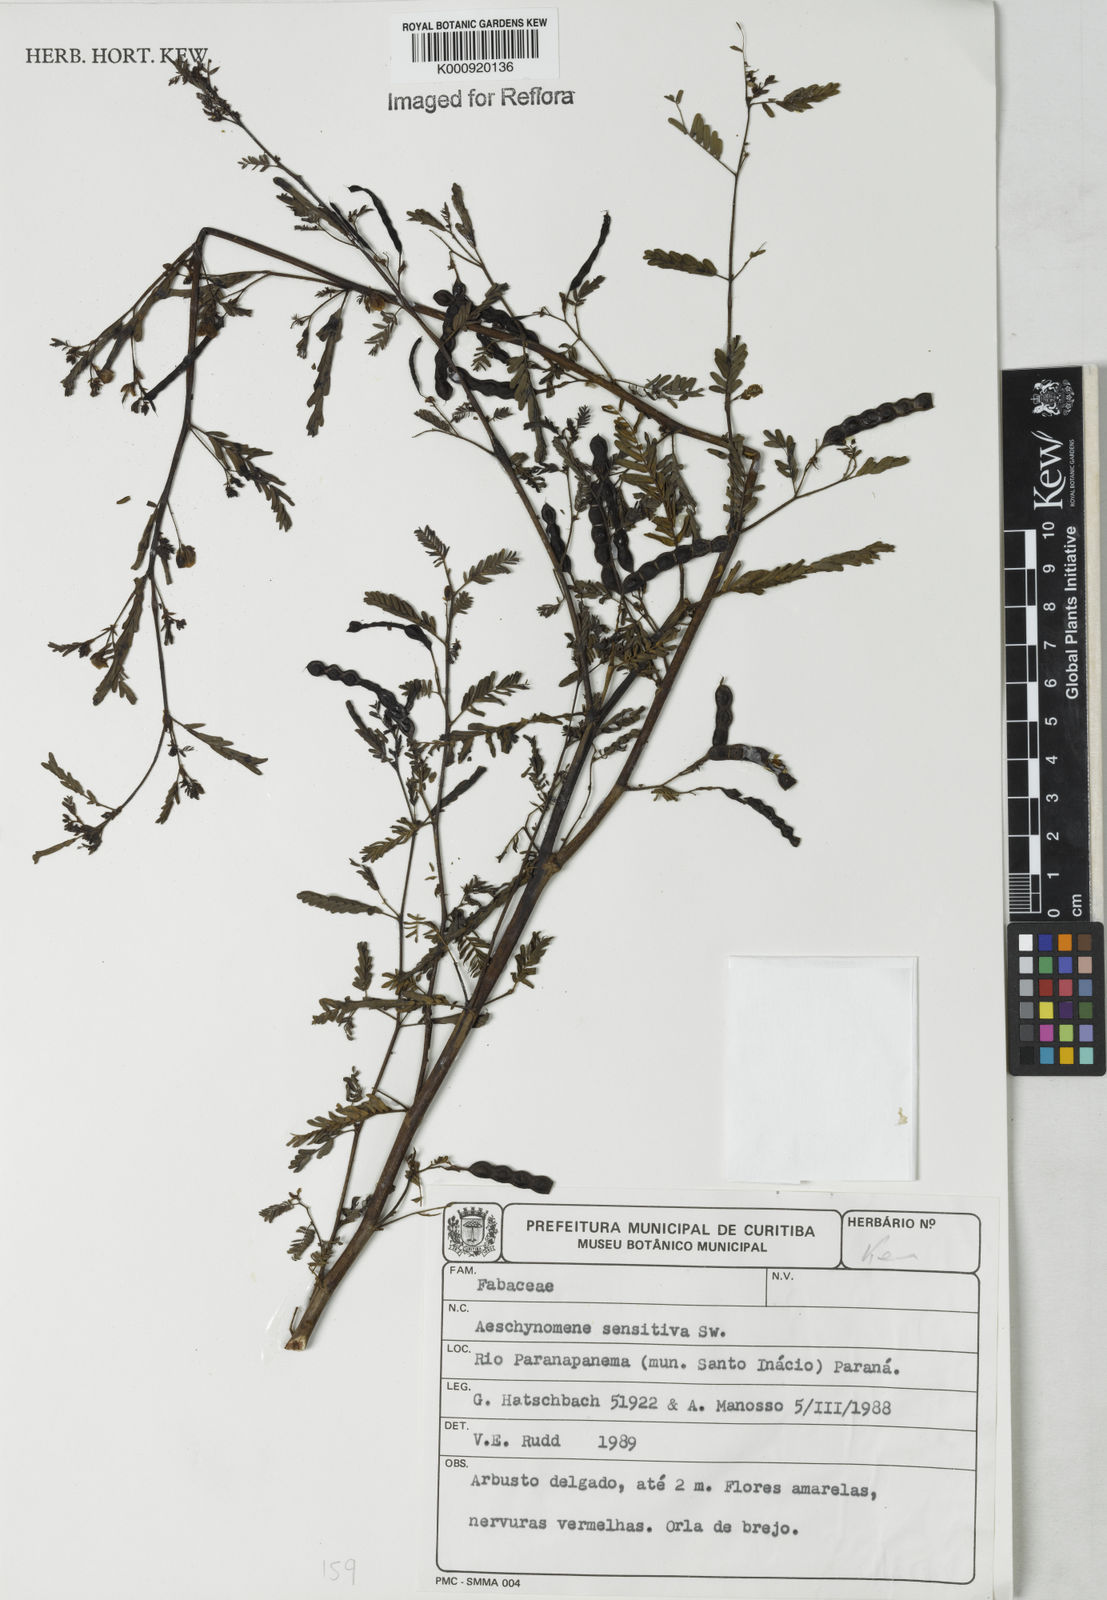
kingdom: Plantae
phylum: Tracheophyta
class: Magnoliopsida
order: Fabales
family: Fabaceae
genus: Aeschynomene
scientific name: Aeschynomene sensitiva
